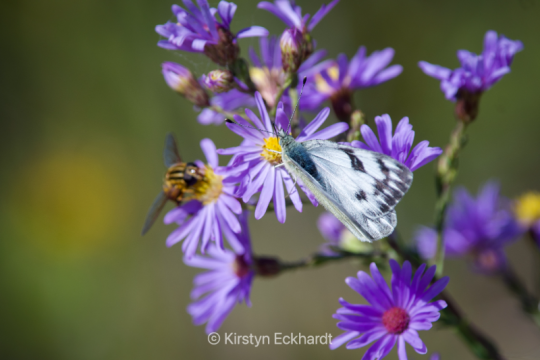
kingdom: Animalia
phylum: Arthropoda
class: Insecta
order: Lepidoptera
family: Pieridae
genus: Pontia
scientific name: Pontia occidentalis
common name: Western White
